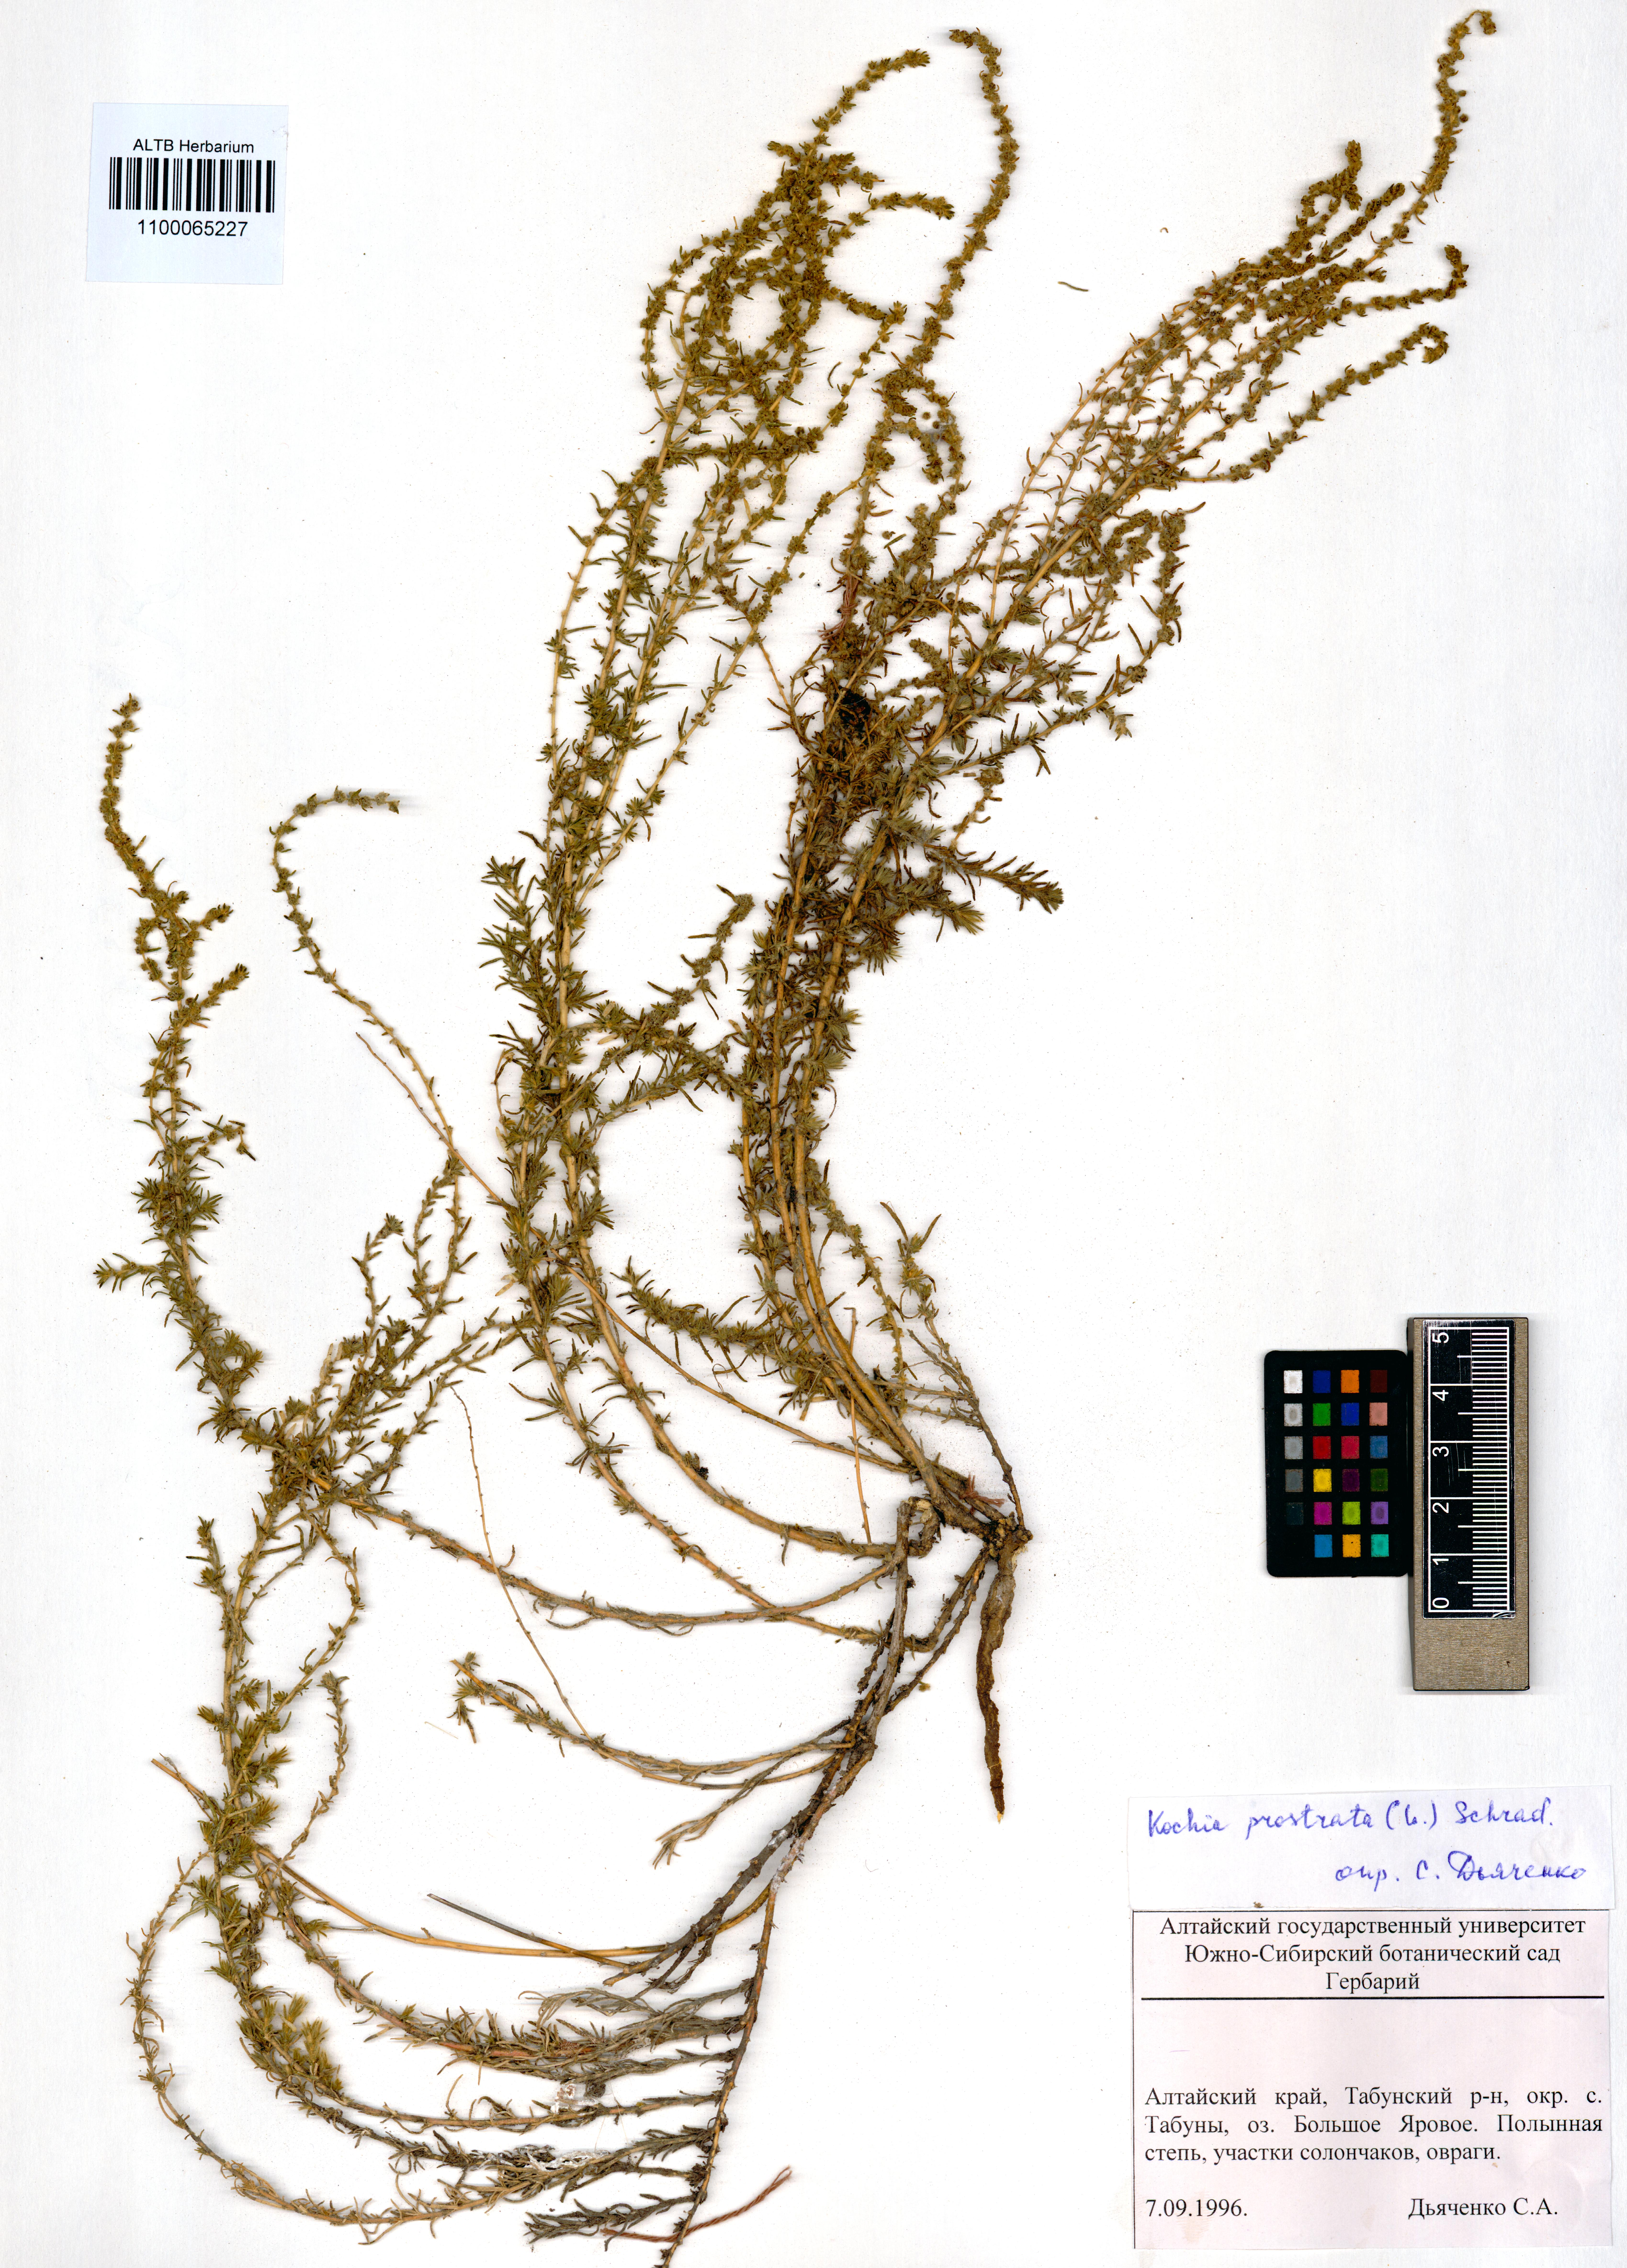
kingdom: Plantae
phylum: Tracheophyta
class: Magnoliopsida
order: Caryophyllales
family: Amaranthaceae
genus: Bassia
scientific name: Bassia prostrata
